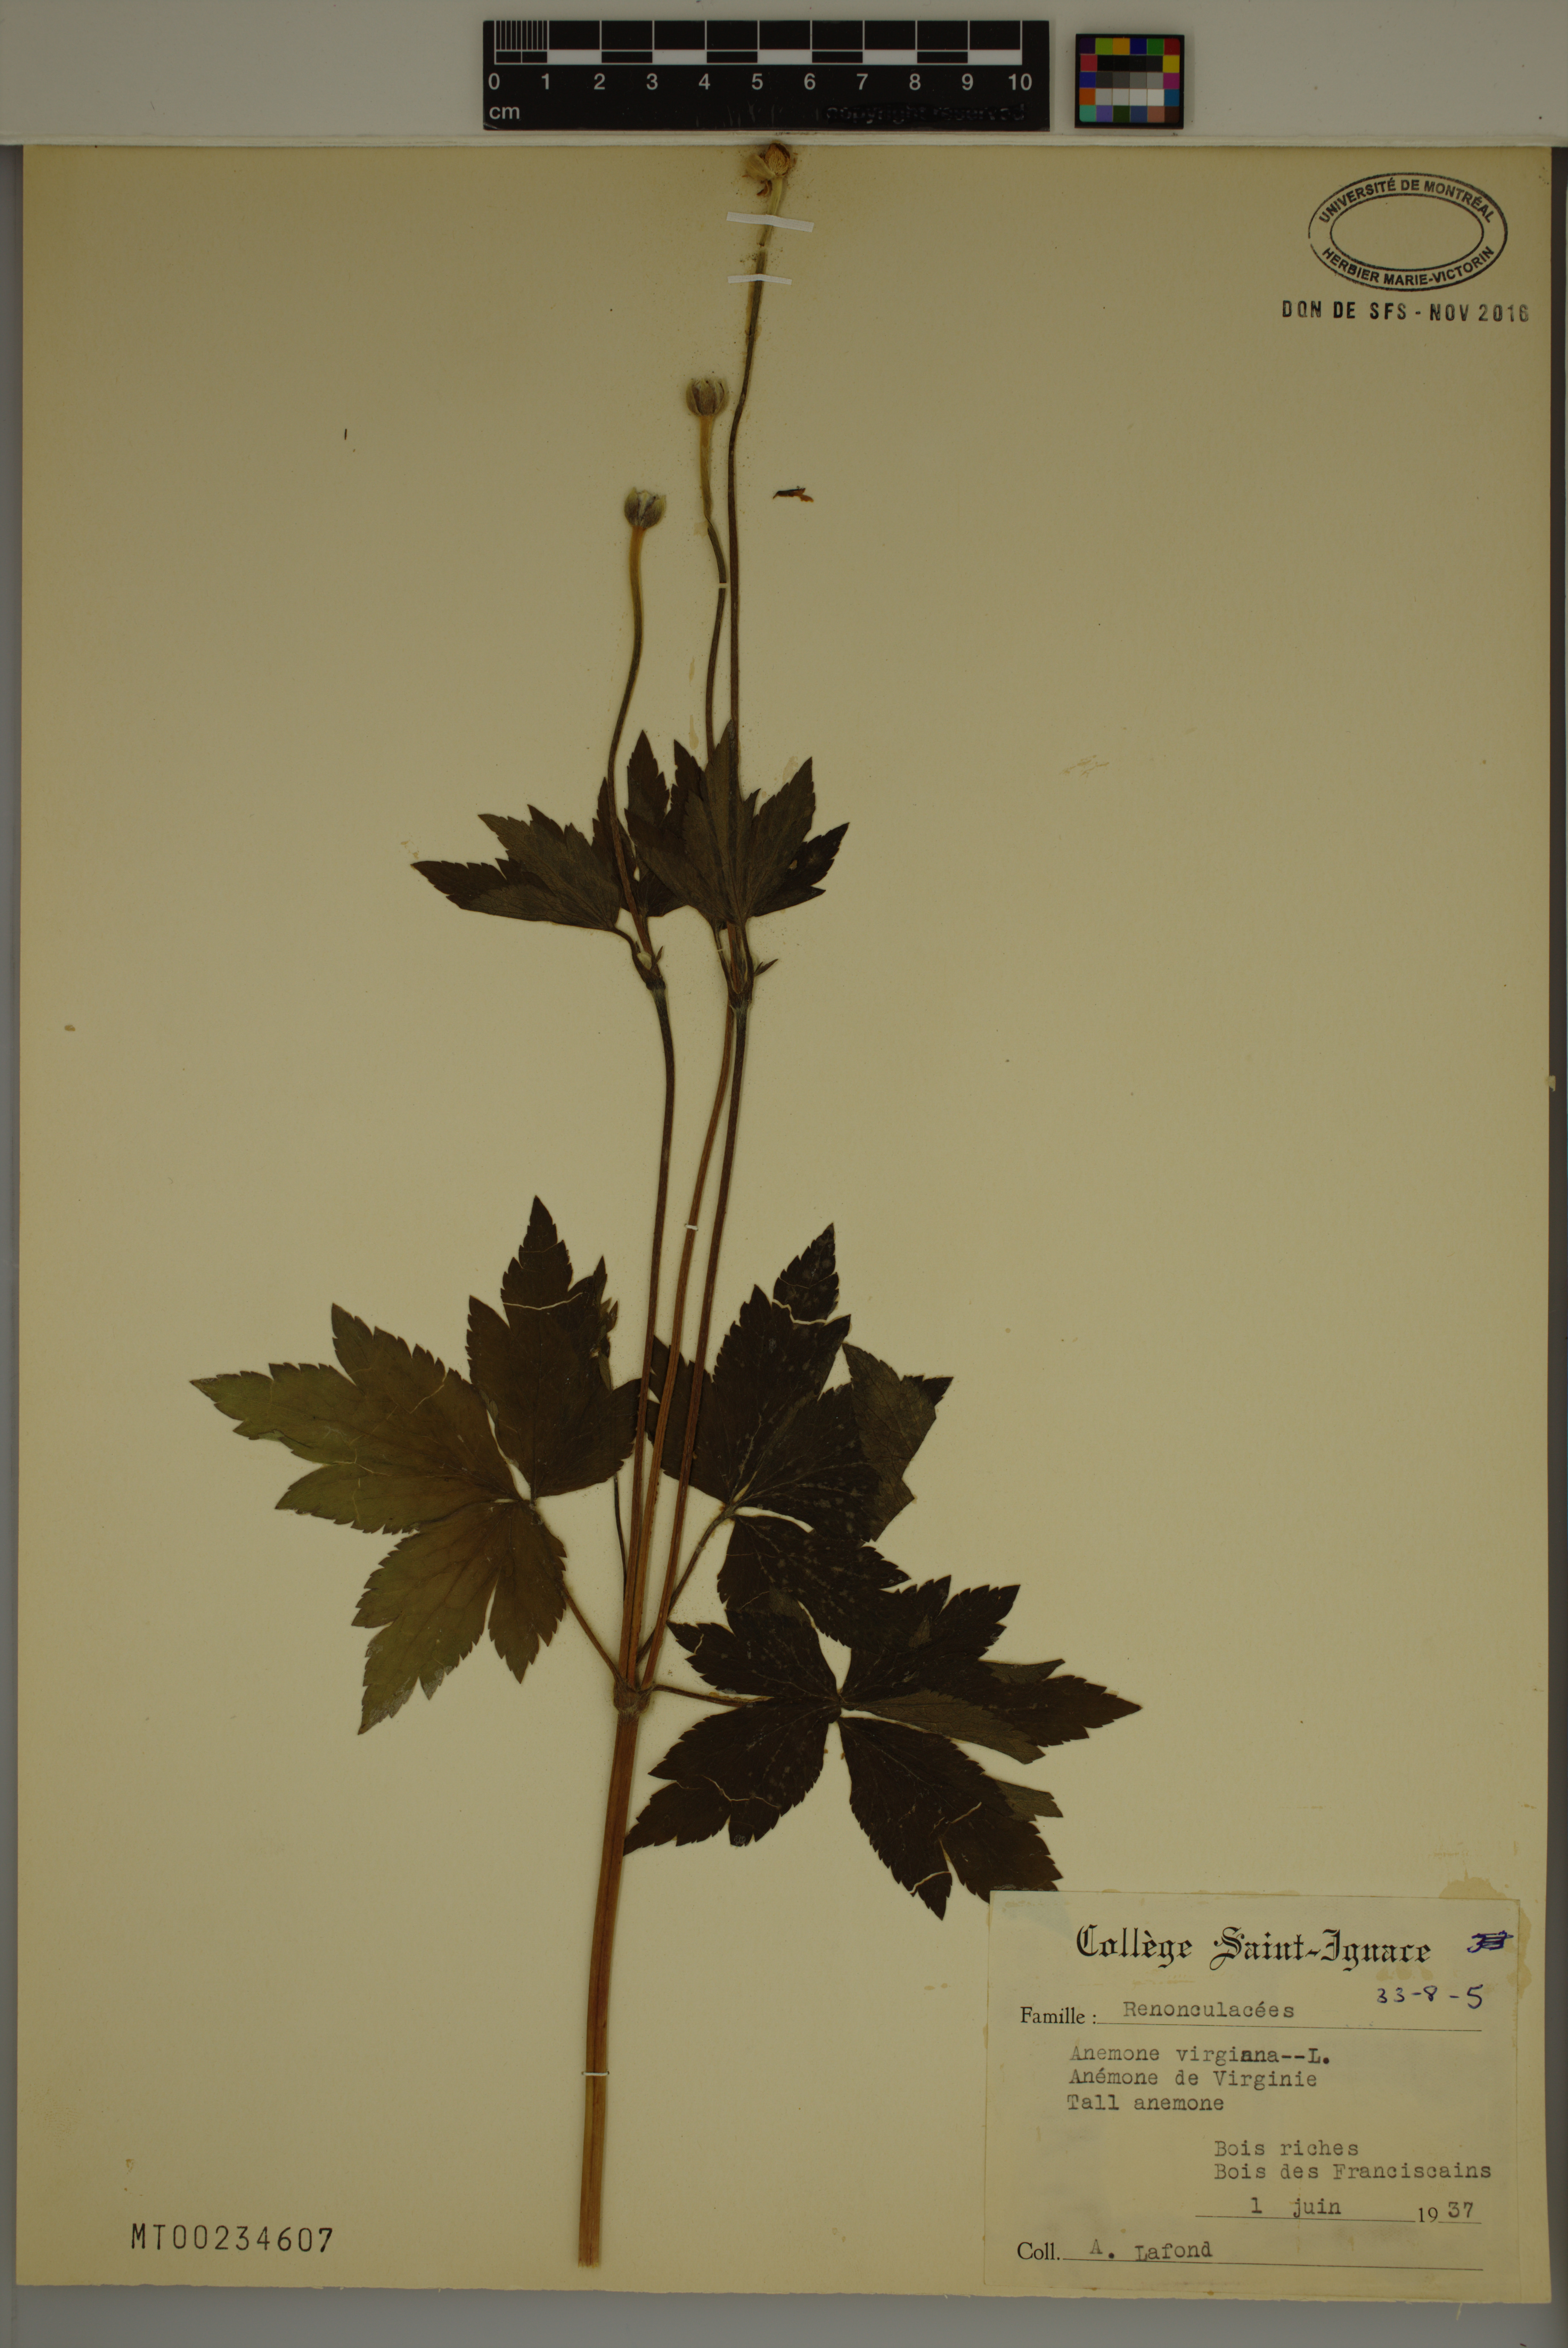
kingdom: Plantae
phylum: Tracheophyta
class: Magnoliopsida
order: Ranunculales
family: Ranunculaceae
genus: Anemone
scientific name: Anemone virginiana
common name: Tall anemone
